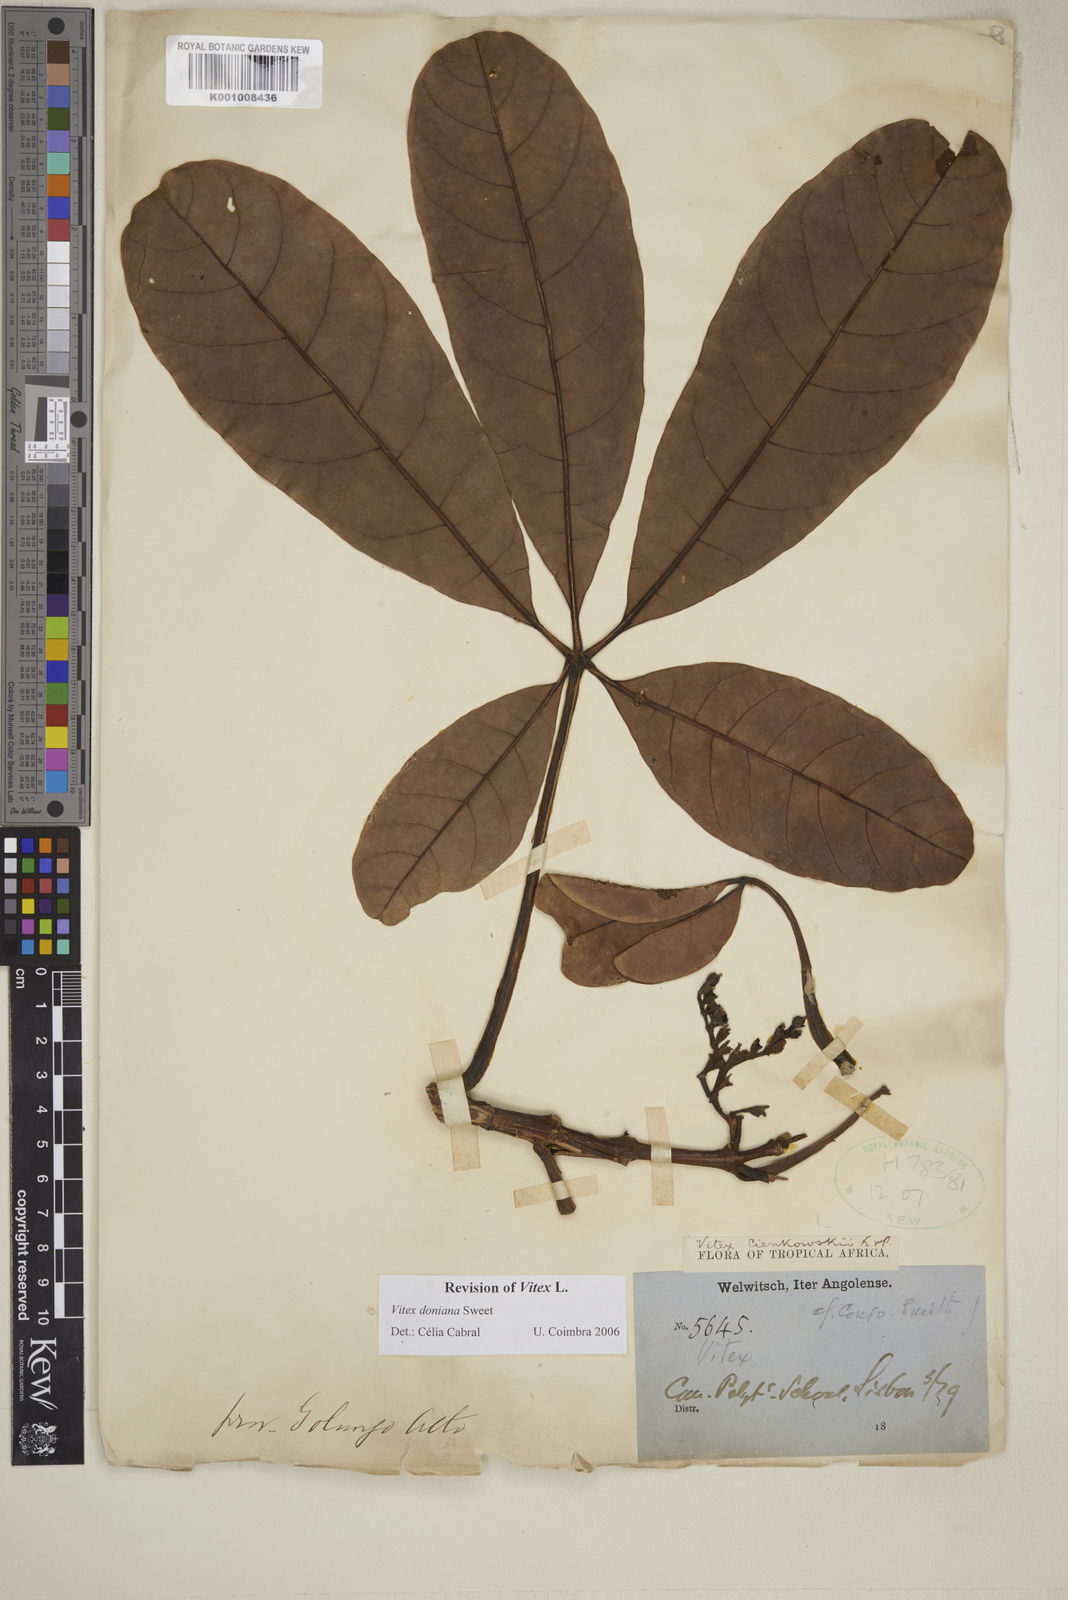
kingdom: Plantae
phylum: Tracheophyta
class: Magnoliopsida
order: Lamiales
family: Lamiaceae
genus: Vitex
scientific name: Vitex doniana
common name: Black plum
